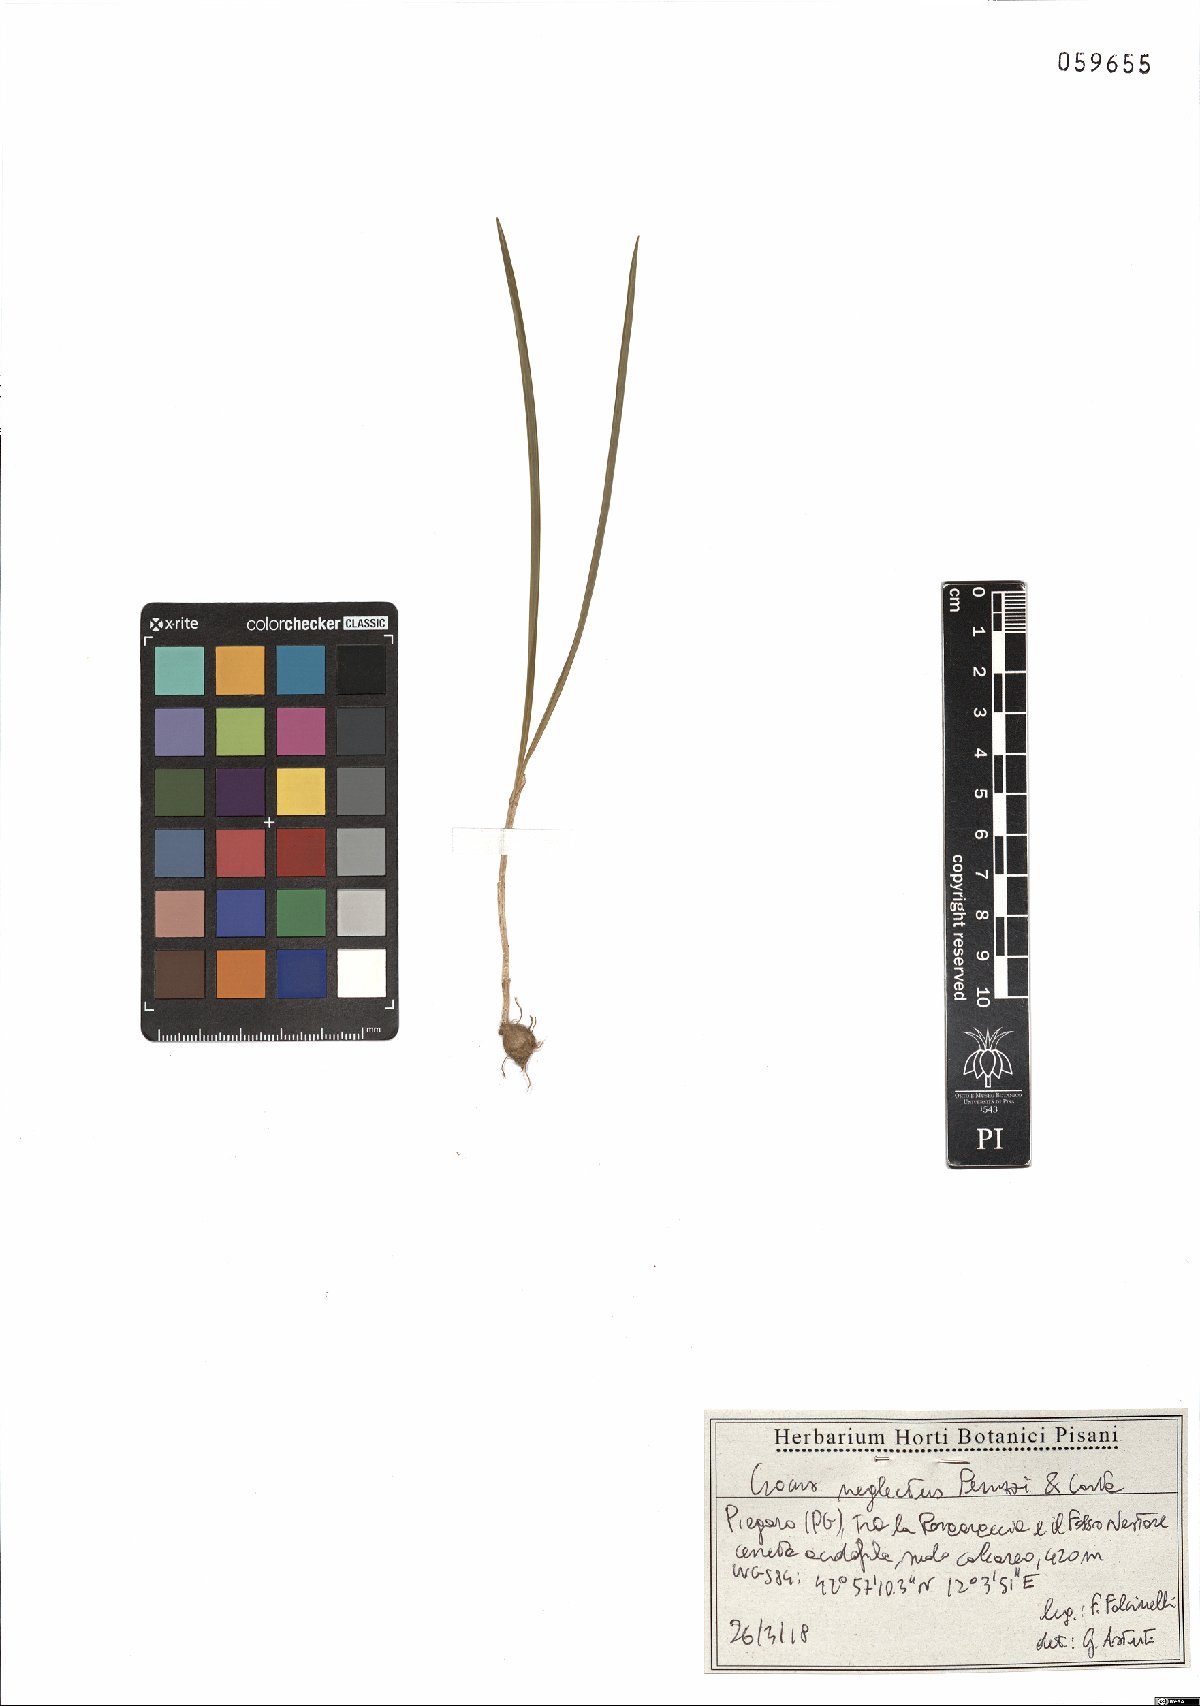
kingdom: Plantae
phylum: Tracheophyta
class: Liliopsida
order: Asparagales
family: Iridaceae
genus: Crocus
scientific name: Crocus neglectus
